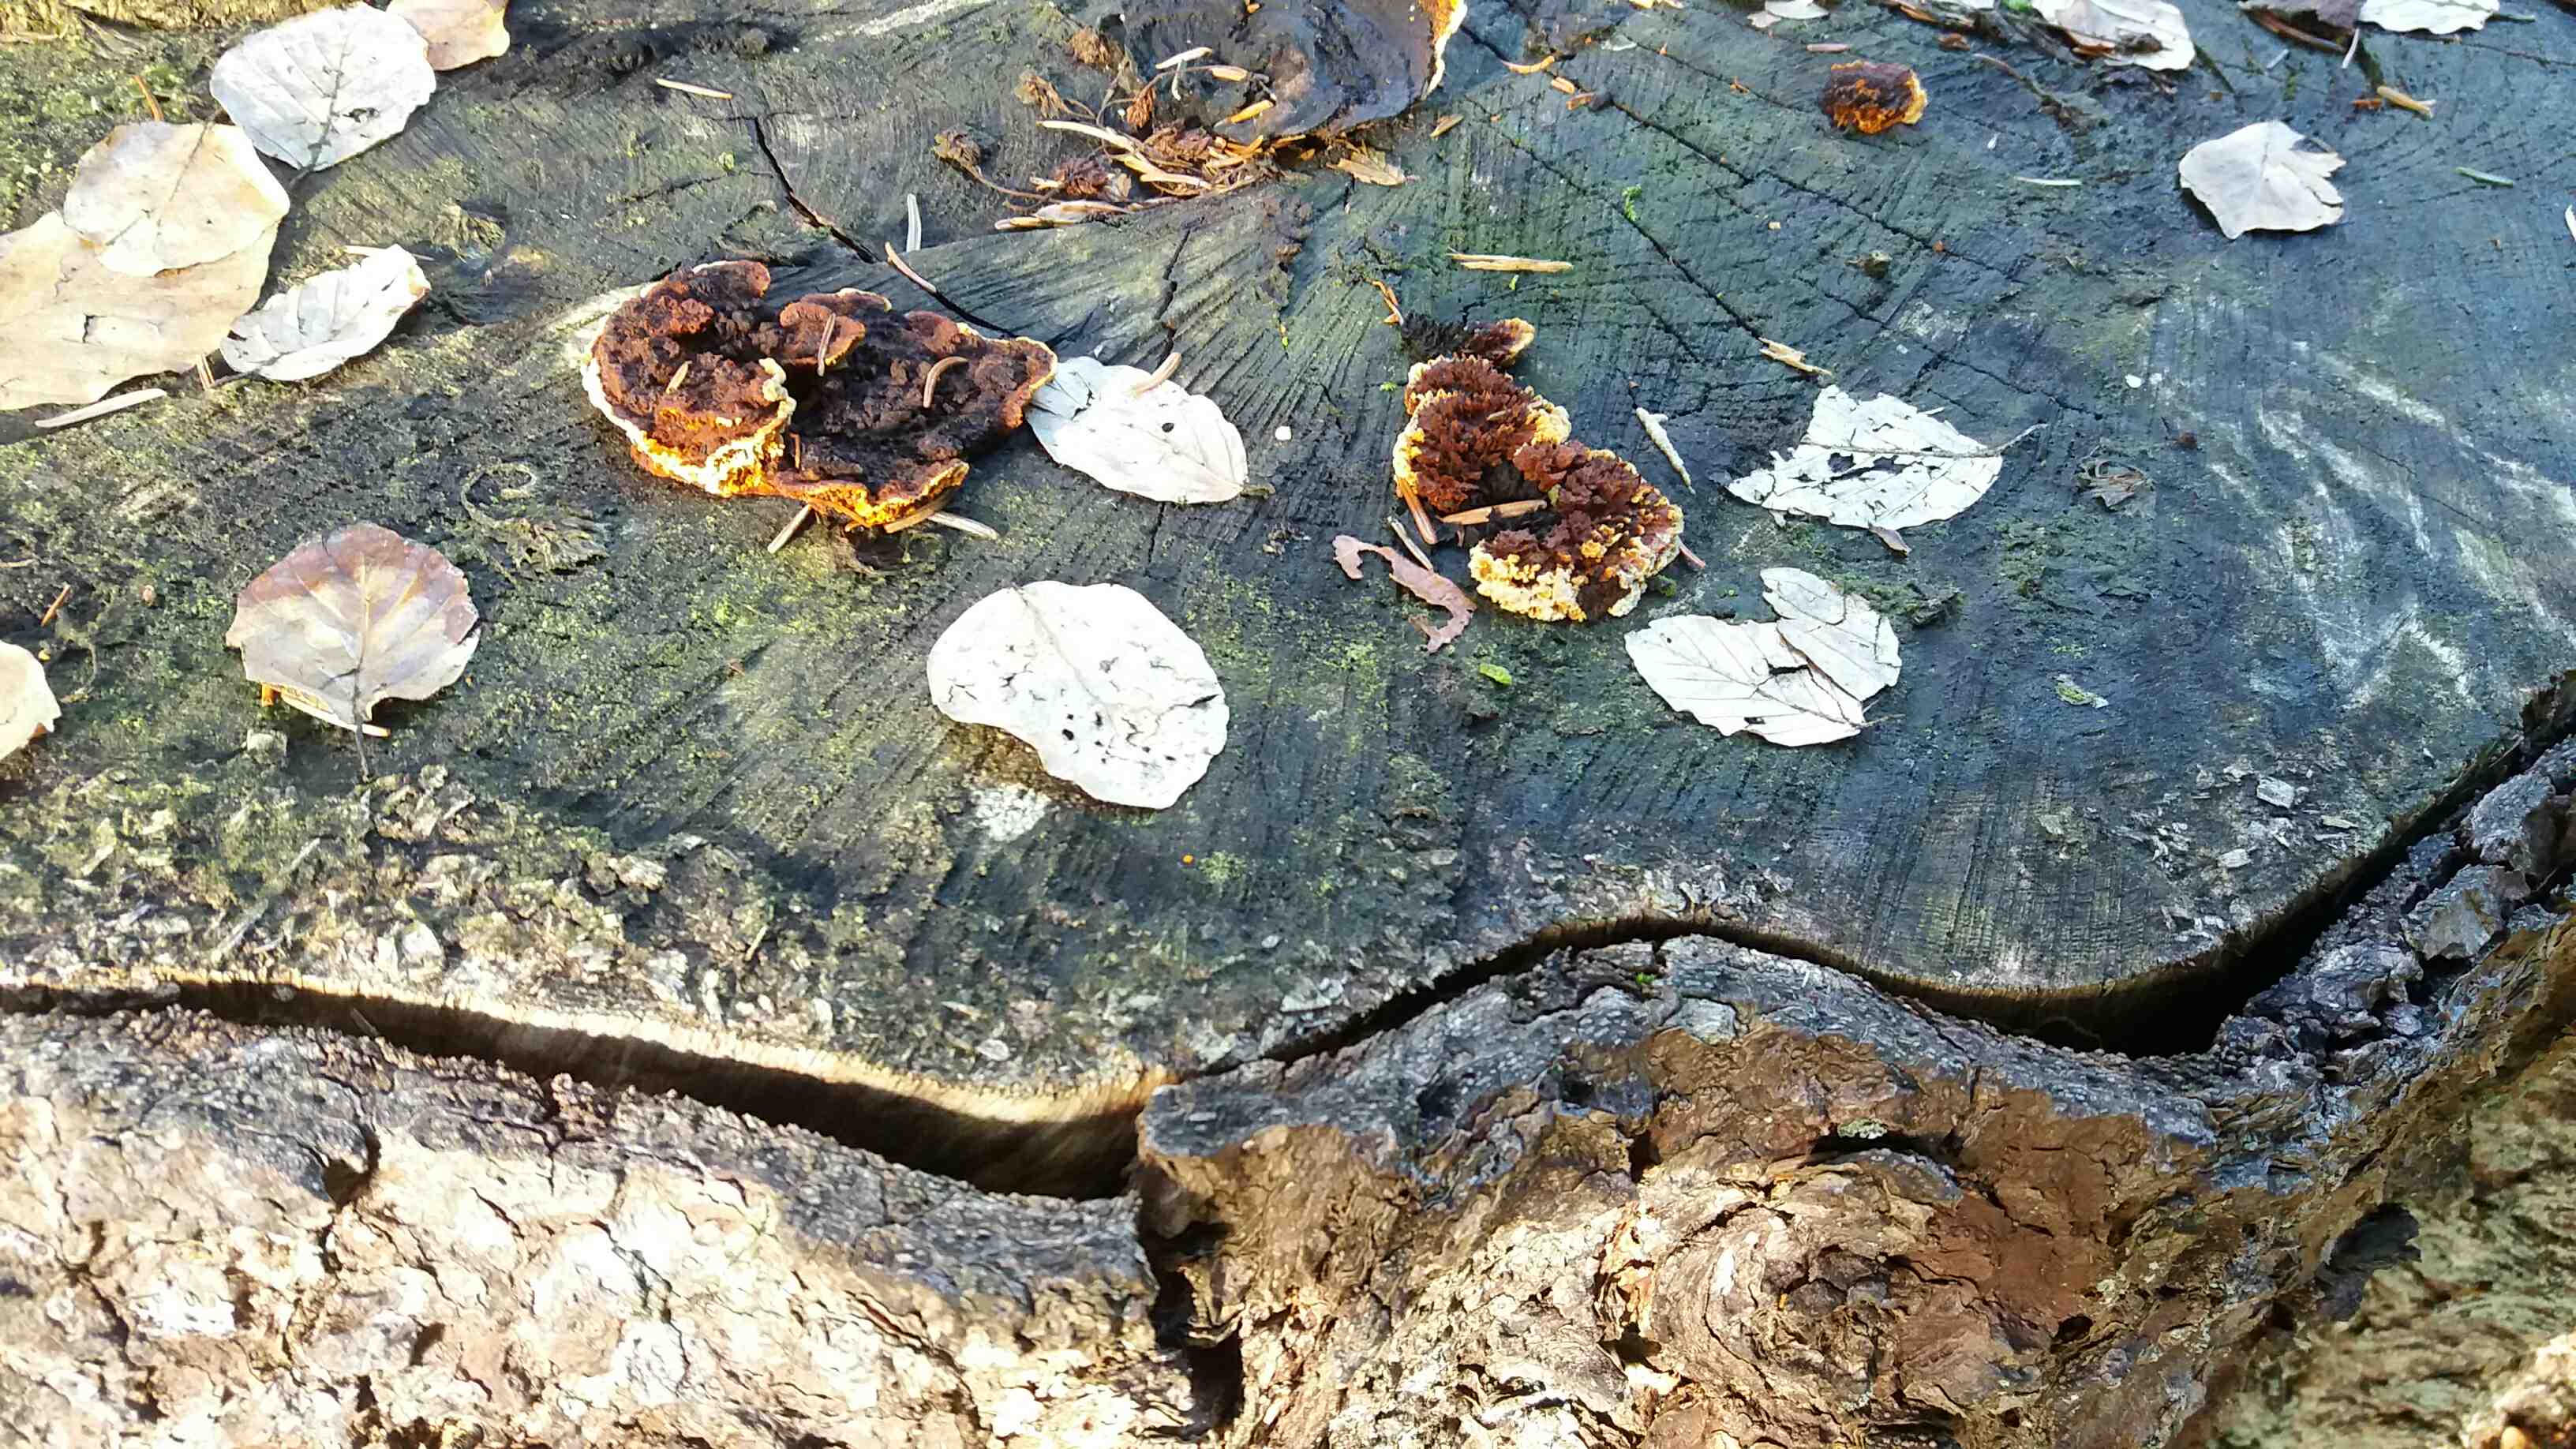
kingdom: Fungi
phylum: Basidiomycota
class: Agaricomycetes
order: Gloeophyllales
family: Gloeophyllaceae
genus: Gloeophyllum
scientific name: Gloeophyllum sepiarium
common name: fyrre-korkhat
